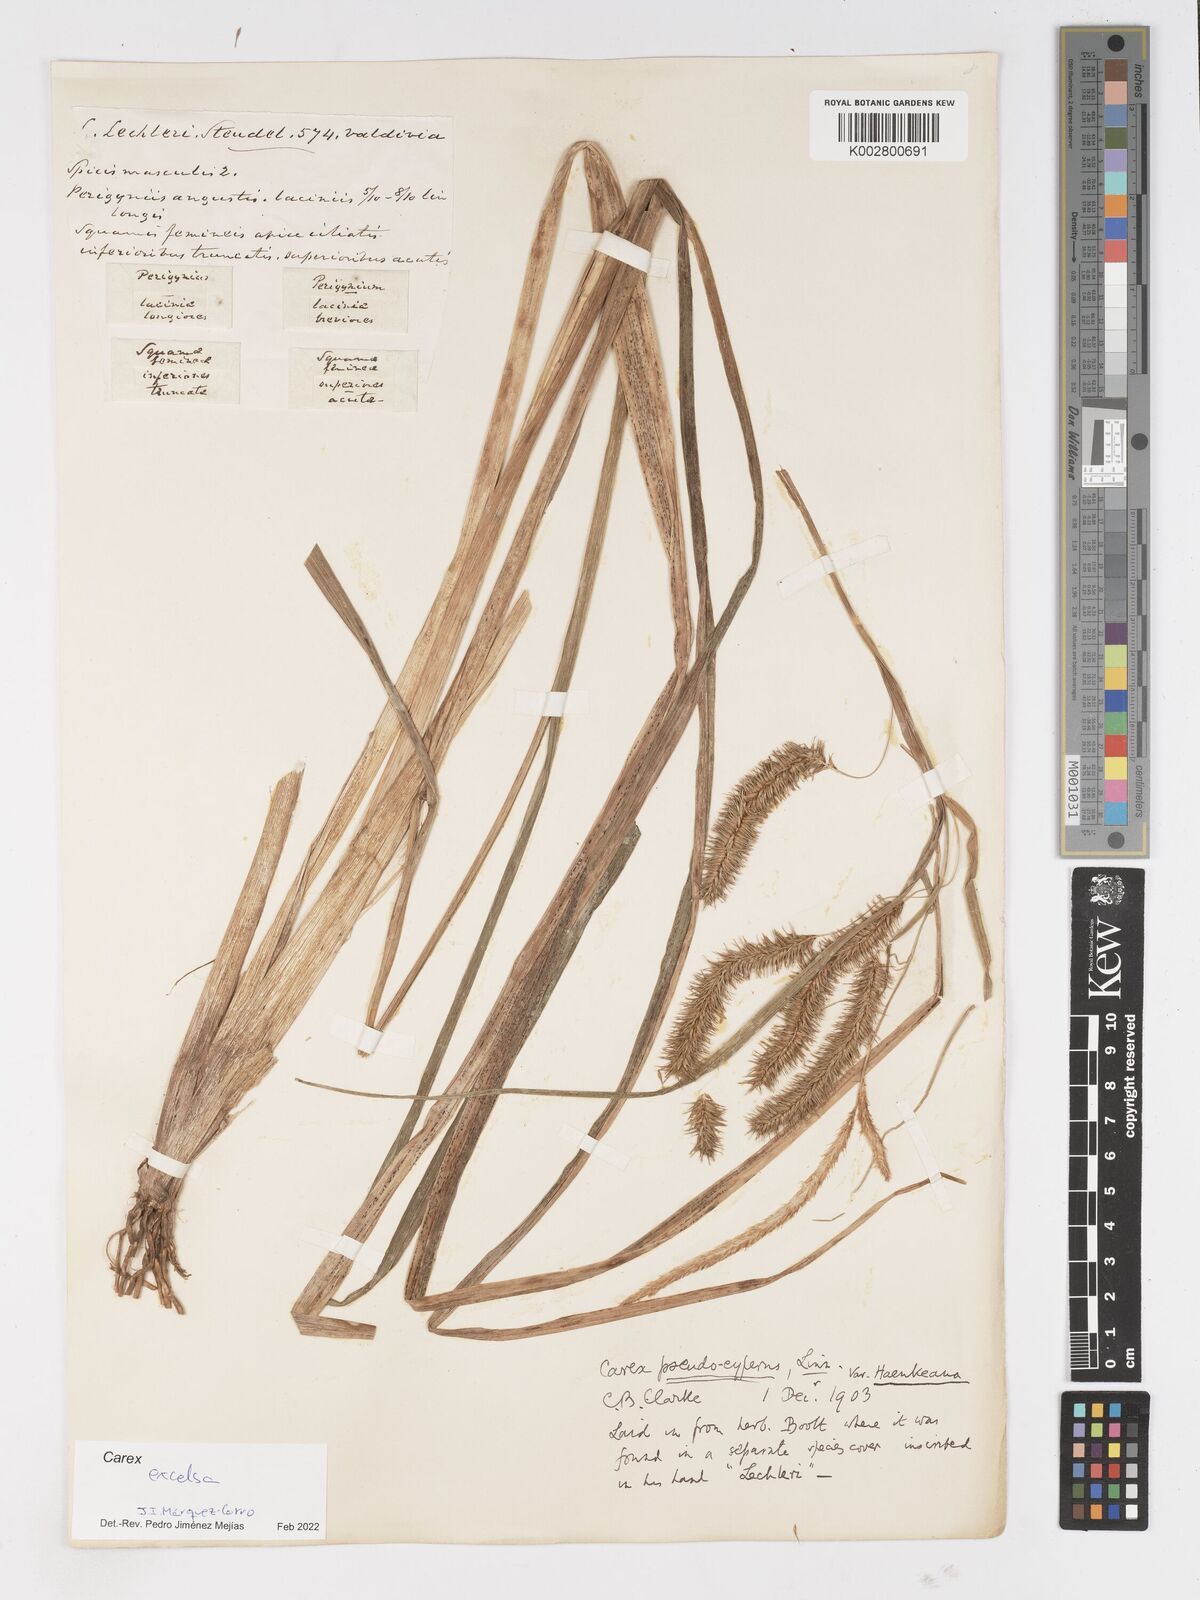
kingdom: Plantae
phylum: Tracheophyta
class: Liliopsida
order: Poales
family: Cyperaceae
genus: Carex
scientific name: Carex excelsa
